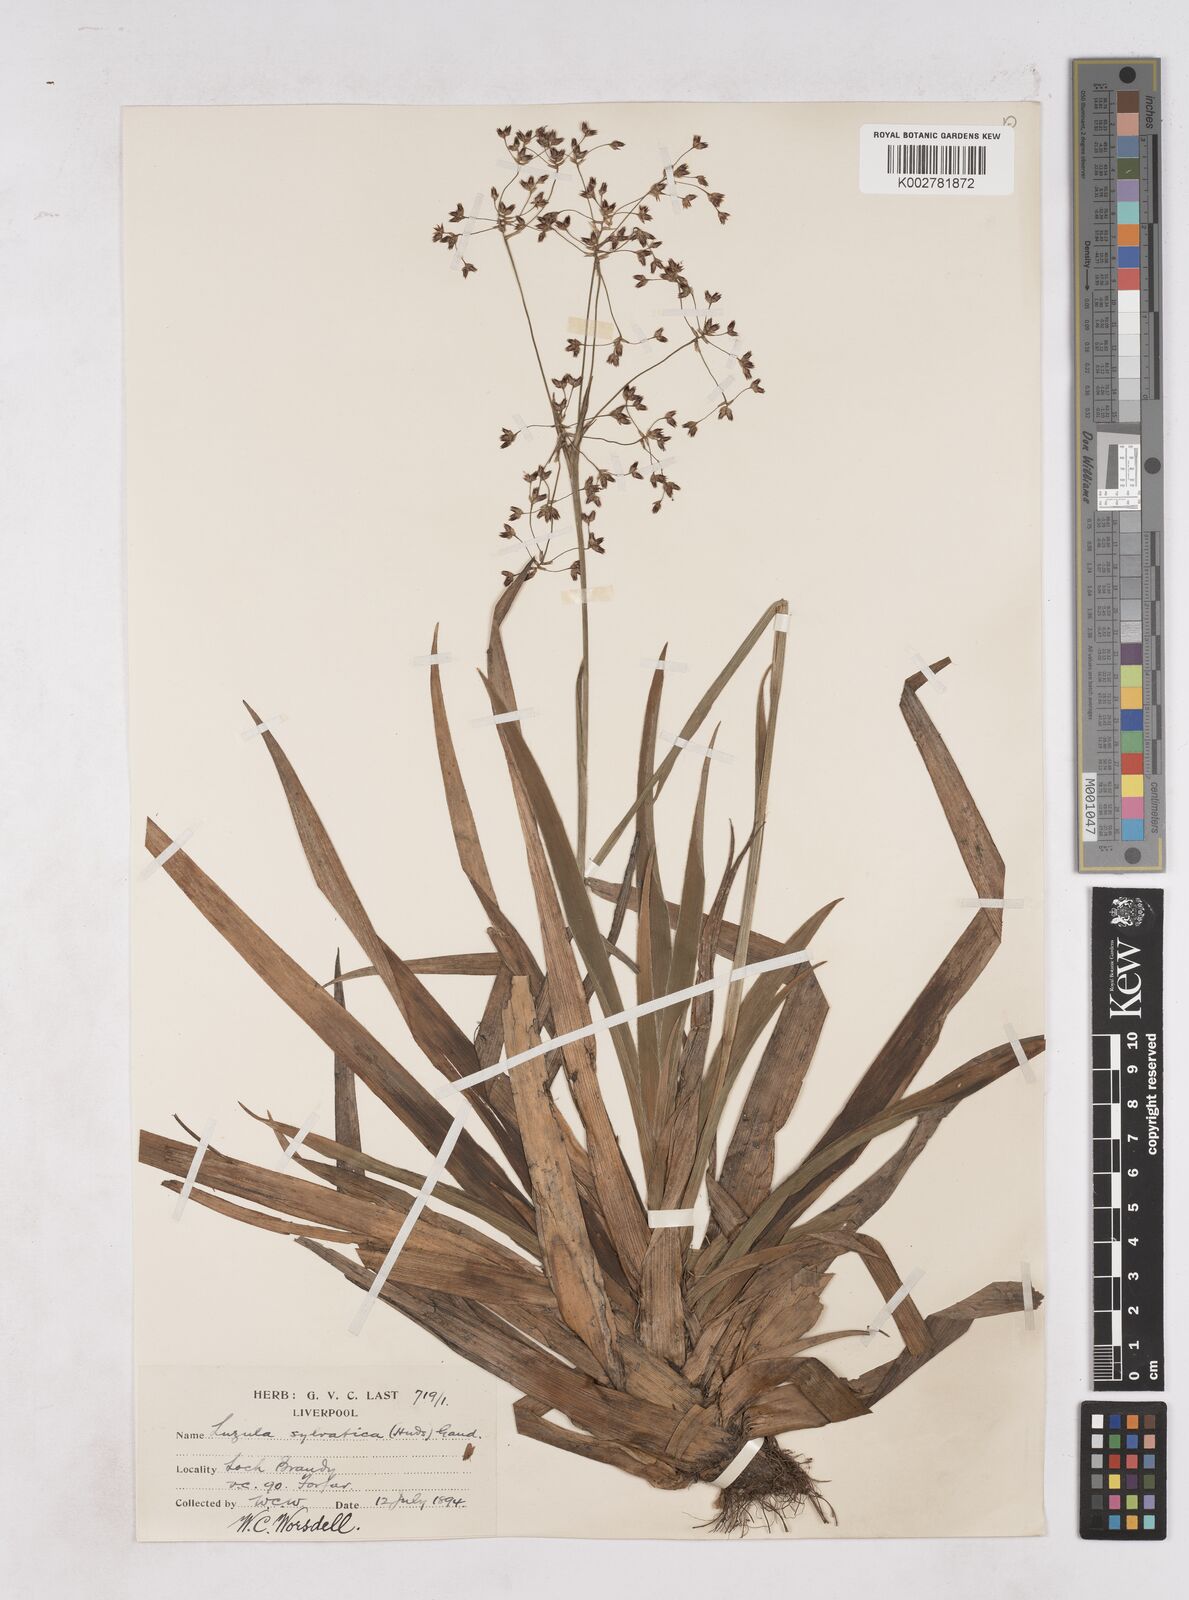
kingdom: Plantae
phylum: Tracheophyta
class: Liliopsida
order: Poales
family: Juncaceae
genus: Luzula
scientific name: Luzula sylvatica
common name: Great wood-rush
